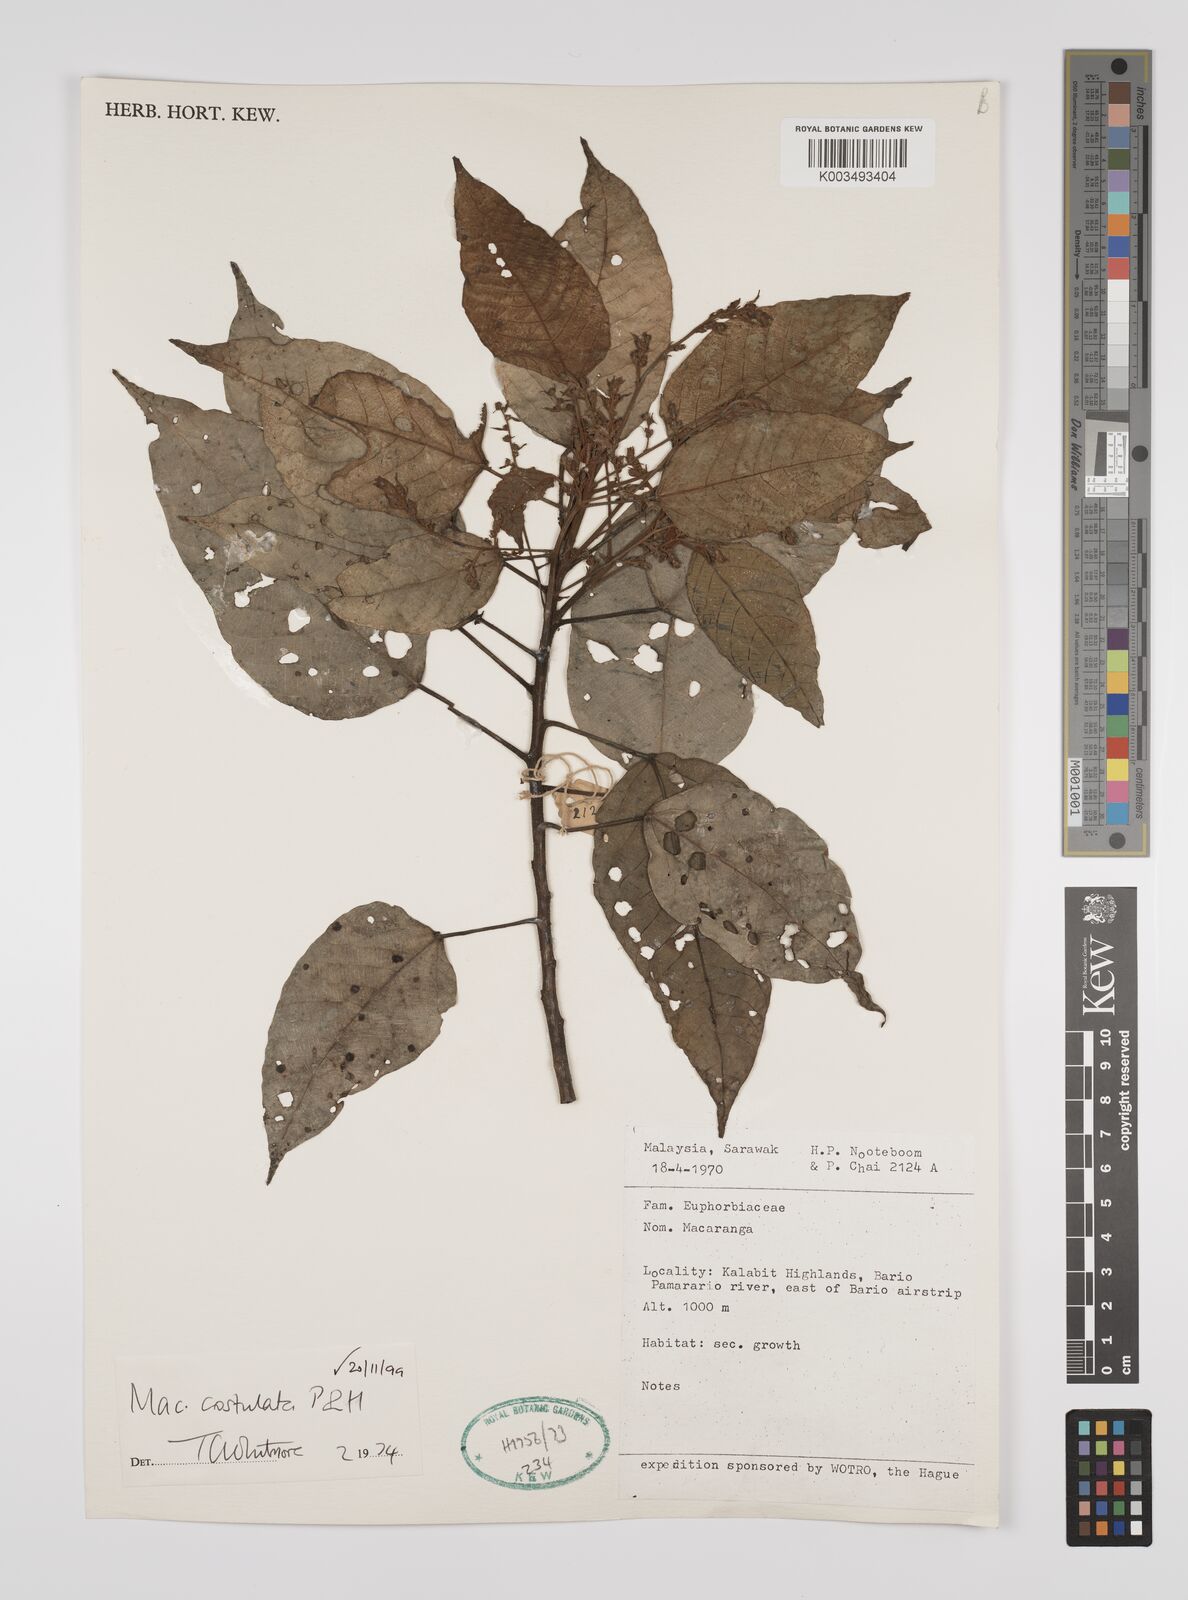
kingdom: Plantae
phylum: Tracheophyta
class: Magnoliopsida
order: Malpighiales
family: Euphorbiaceae
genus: Macaranga
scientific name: Macaranga costulata
